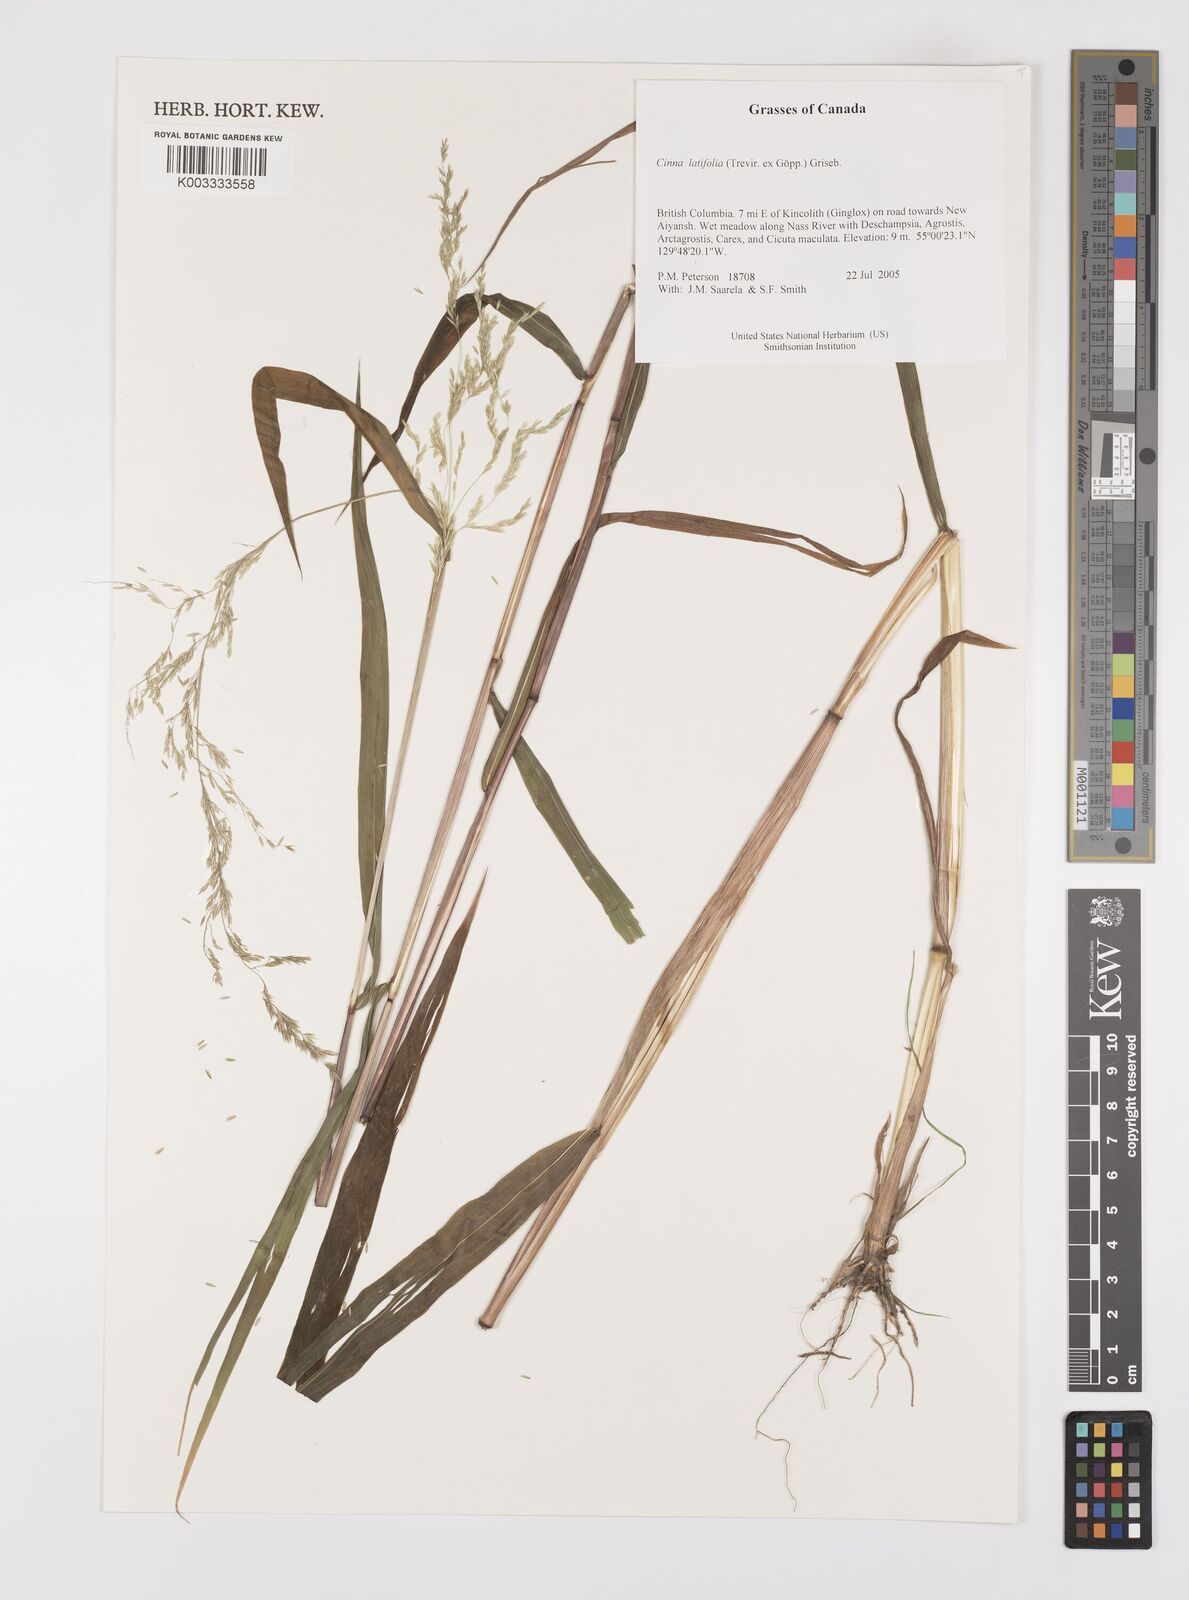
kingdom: Plantae
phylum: Tracheophyta
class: Liliopsida
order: Poales
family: Poaceae
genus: Cinna
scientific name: Cinna latifolia
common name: Drooping woodreed
